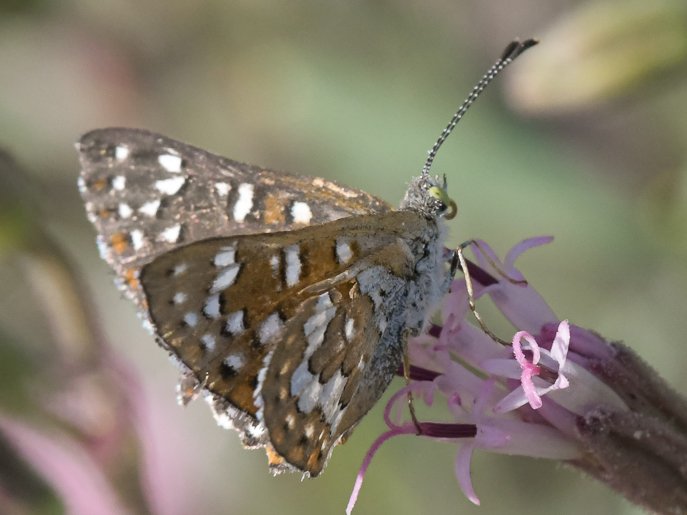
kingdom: Animalia
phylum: Arthropoda
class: Insecta
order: Lepidoptera
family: Riodinidae
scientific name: Riodinidae
